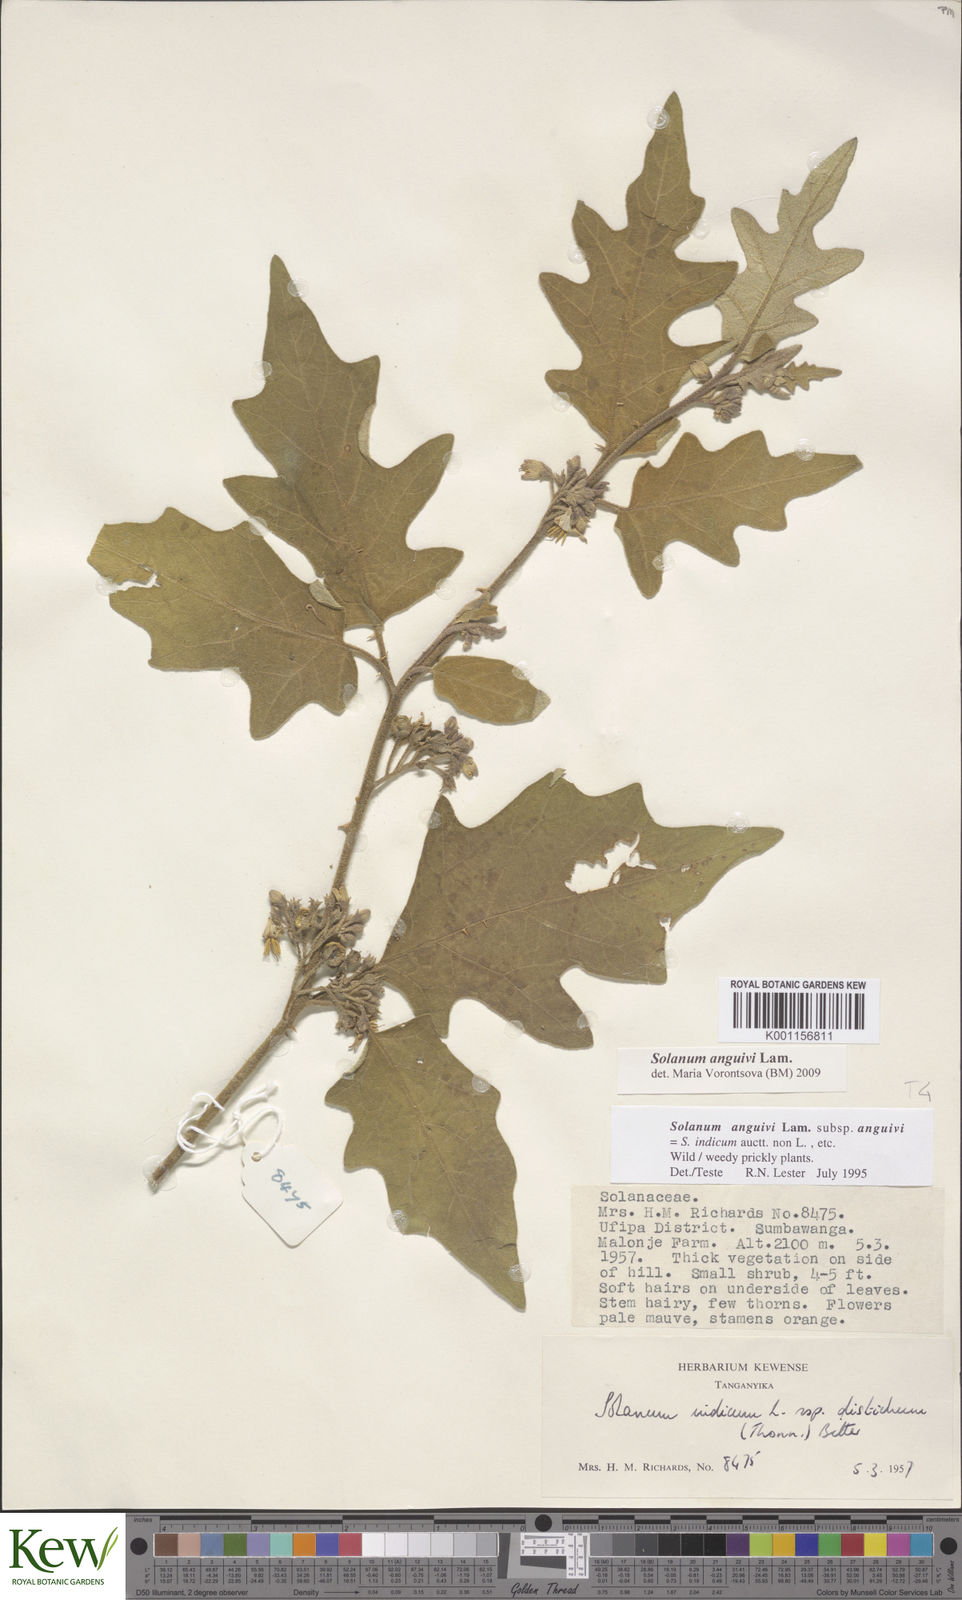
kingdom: Plantae
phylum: Tracheophyta
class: Magnoliopsida
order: Solanales
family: Solanaceae
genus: Solanum
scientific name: Solanum anguivi
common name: Forest bitterberry
